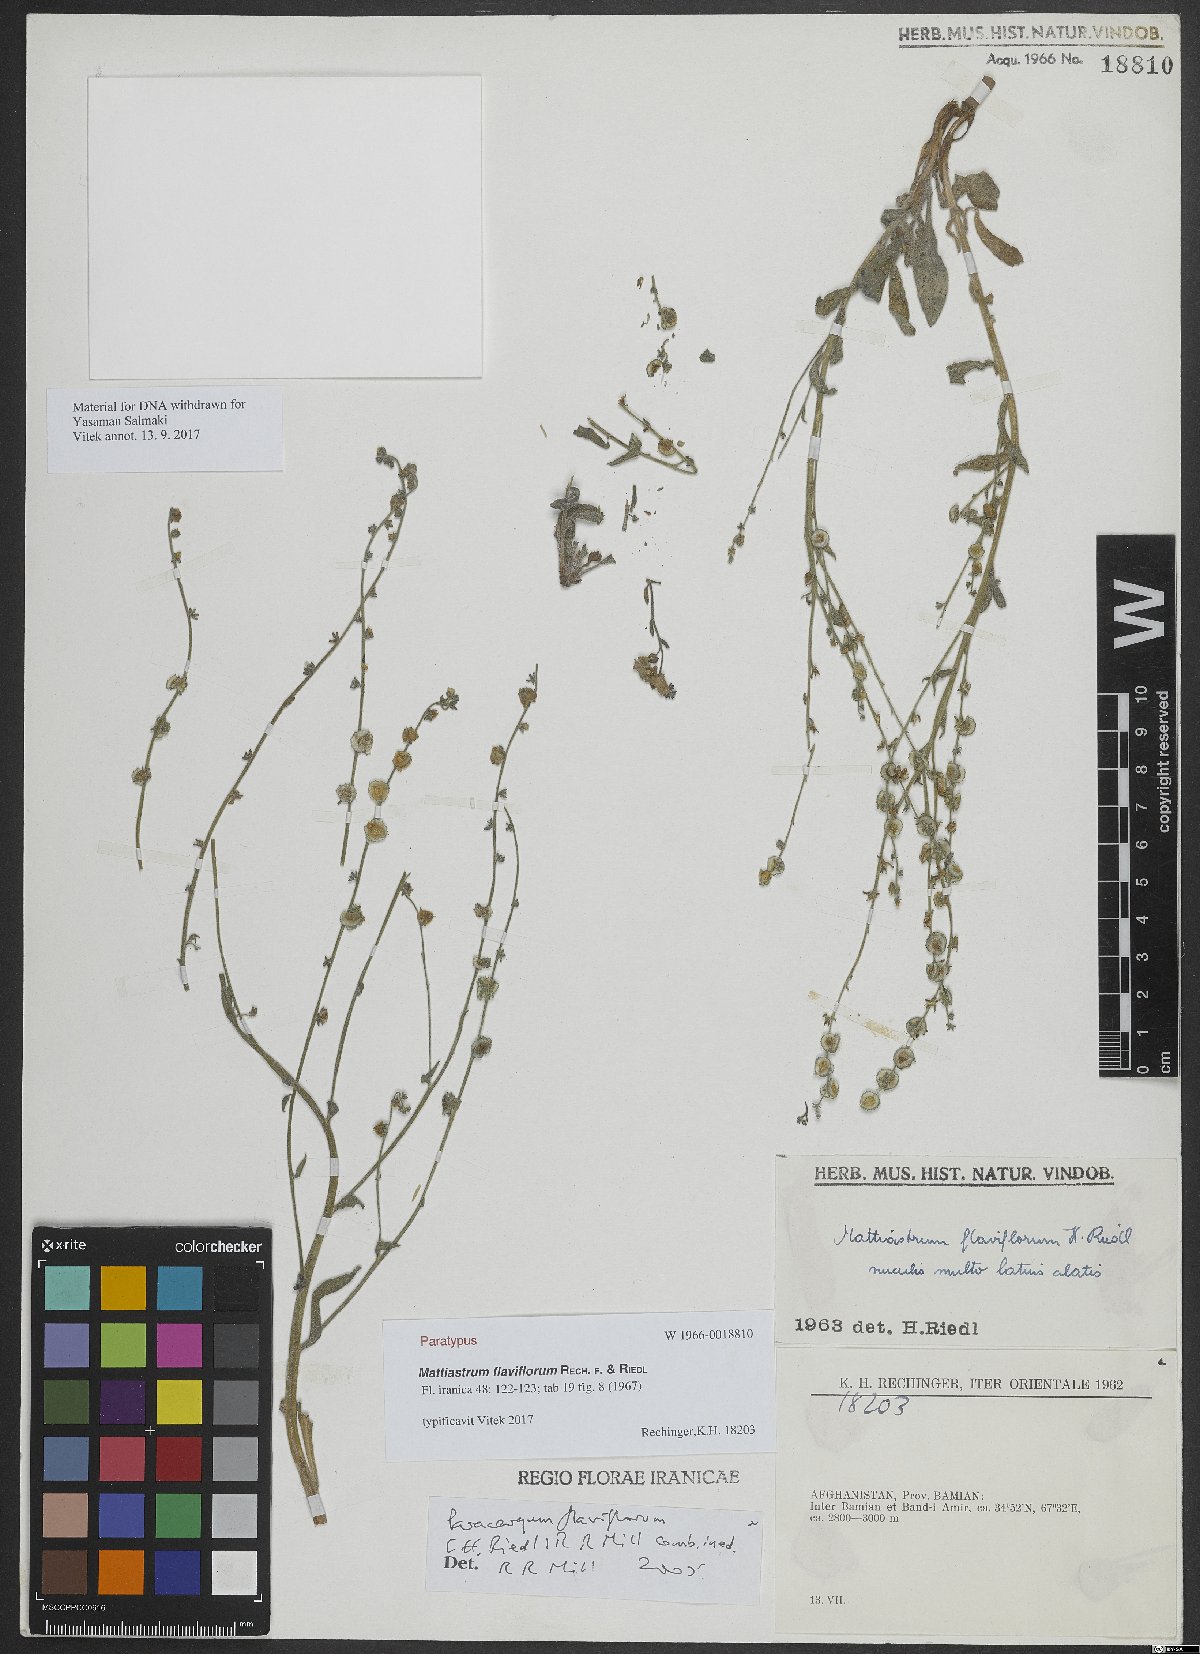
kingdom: Plantae
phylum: Tracheophyta
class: Magnoliopsida
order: Boraginales
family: Boraginaceae
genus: Paracaryum
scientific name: Paracaryum flaviflorum
